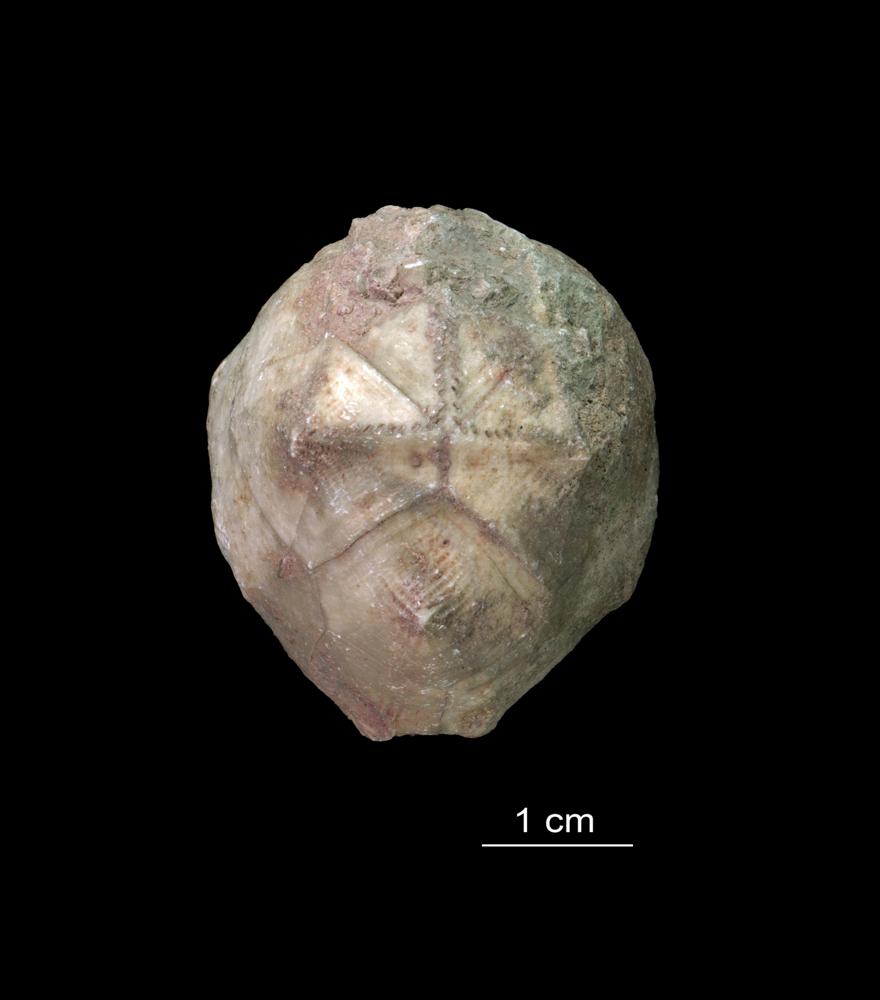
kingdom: Animalia
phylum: Echinodermata
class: Crinoidea
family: Hemicosmitidae
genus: Hemicosmites
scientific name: Hemicosmites extraneus
